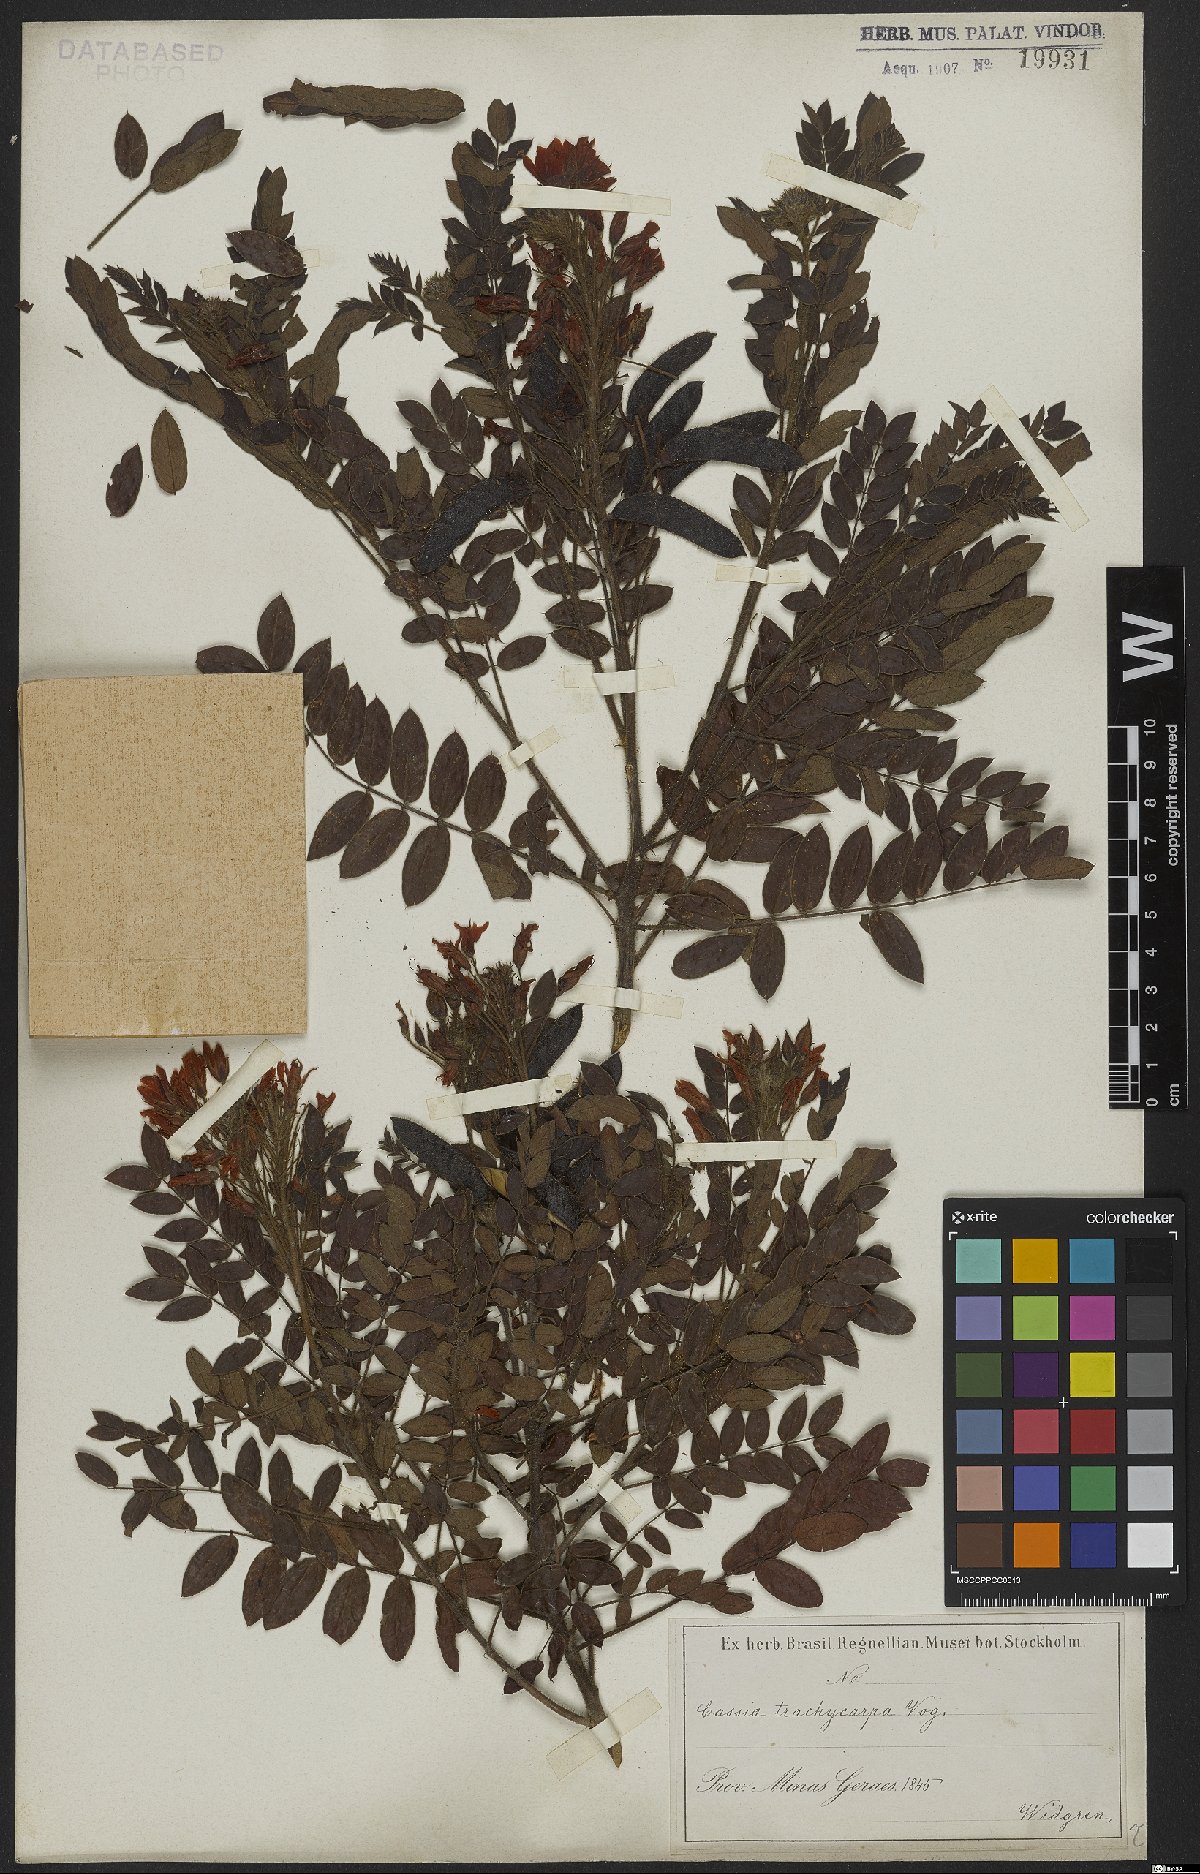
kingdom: Plantae
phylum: Tracheophyta
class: Magnoliopsida
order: Fabales
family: Fabaceae
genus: Chamaecrista
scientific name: Chamaecrista trachycarpa
